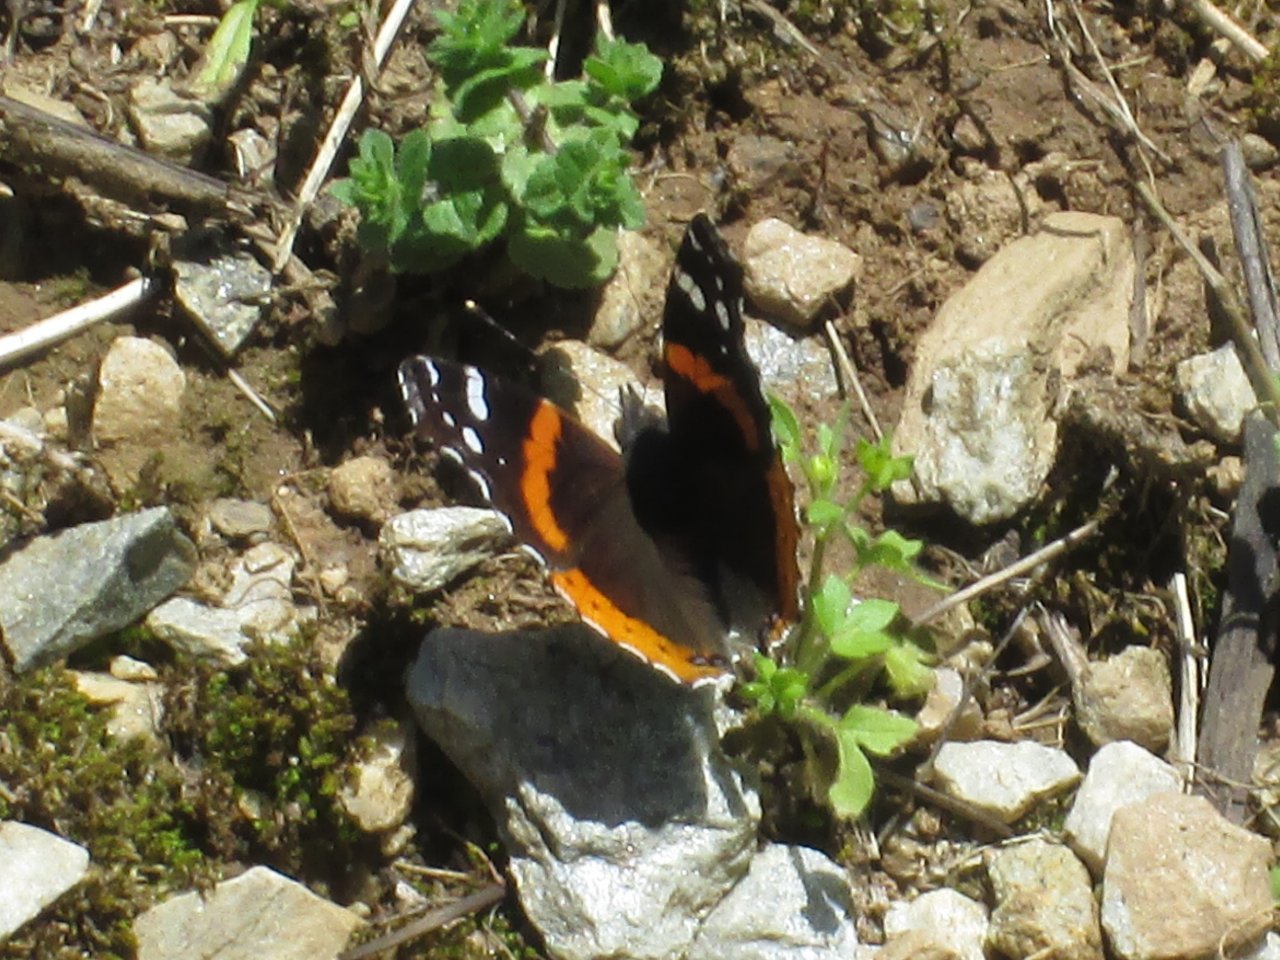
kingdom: Animalia
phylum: Arthropoda
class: Insecta
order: Lepidoptera
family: Nymphalidae
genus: Vanessa
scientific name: Vanessa atalanta
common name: Red Admiral
